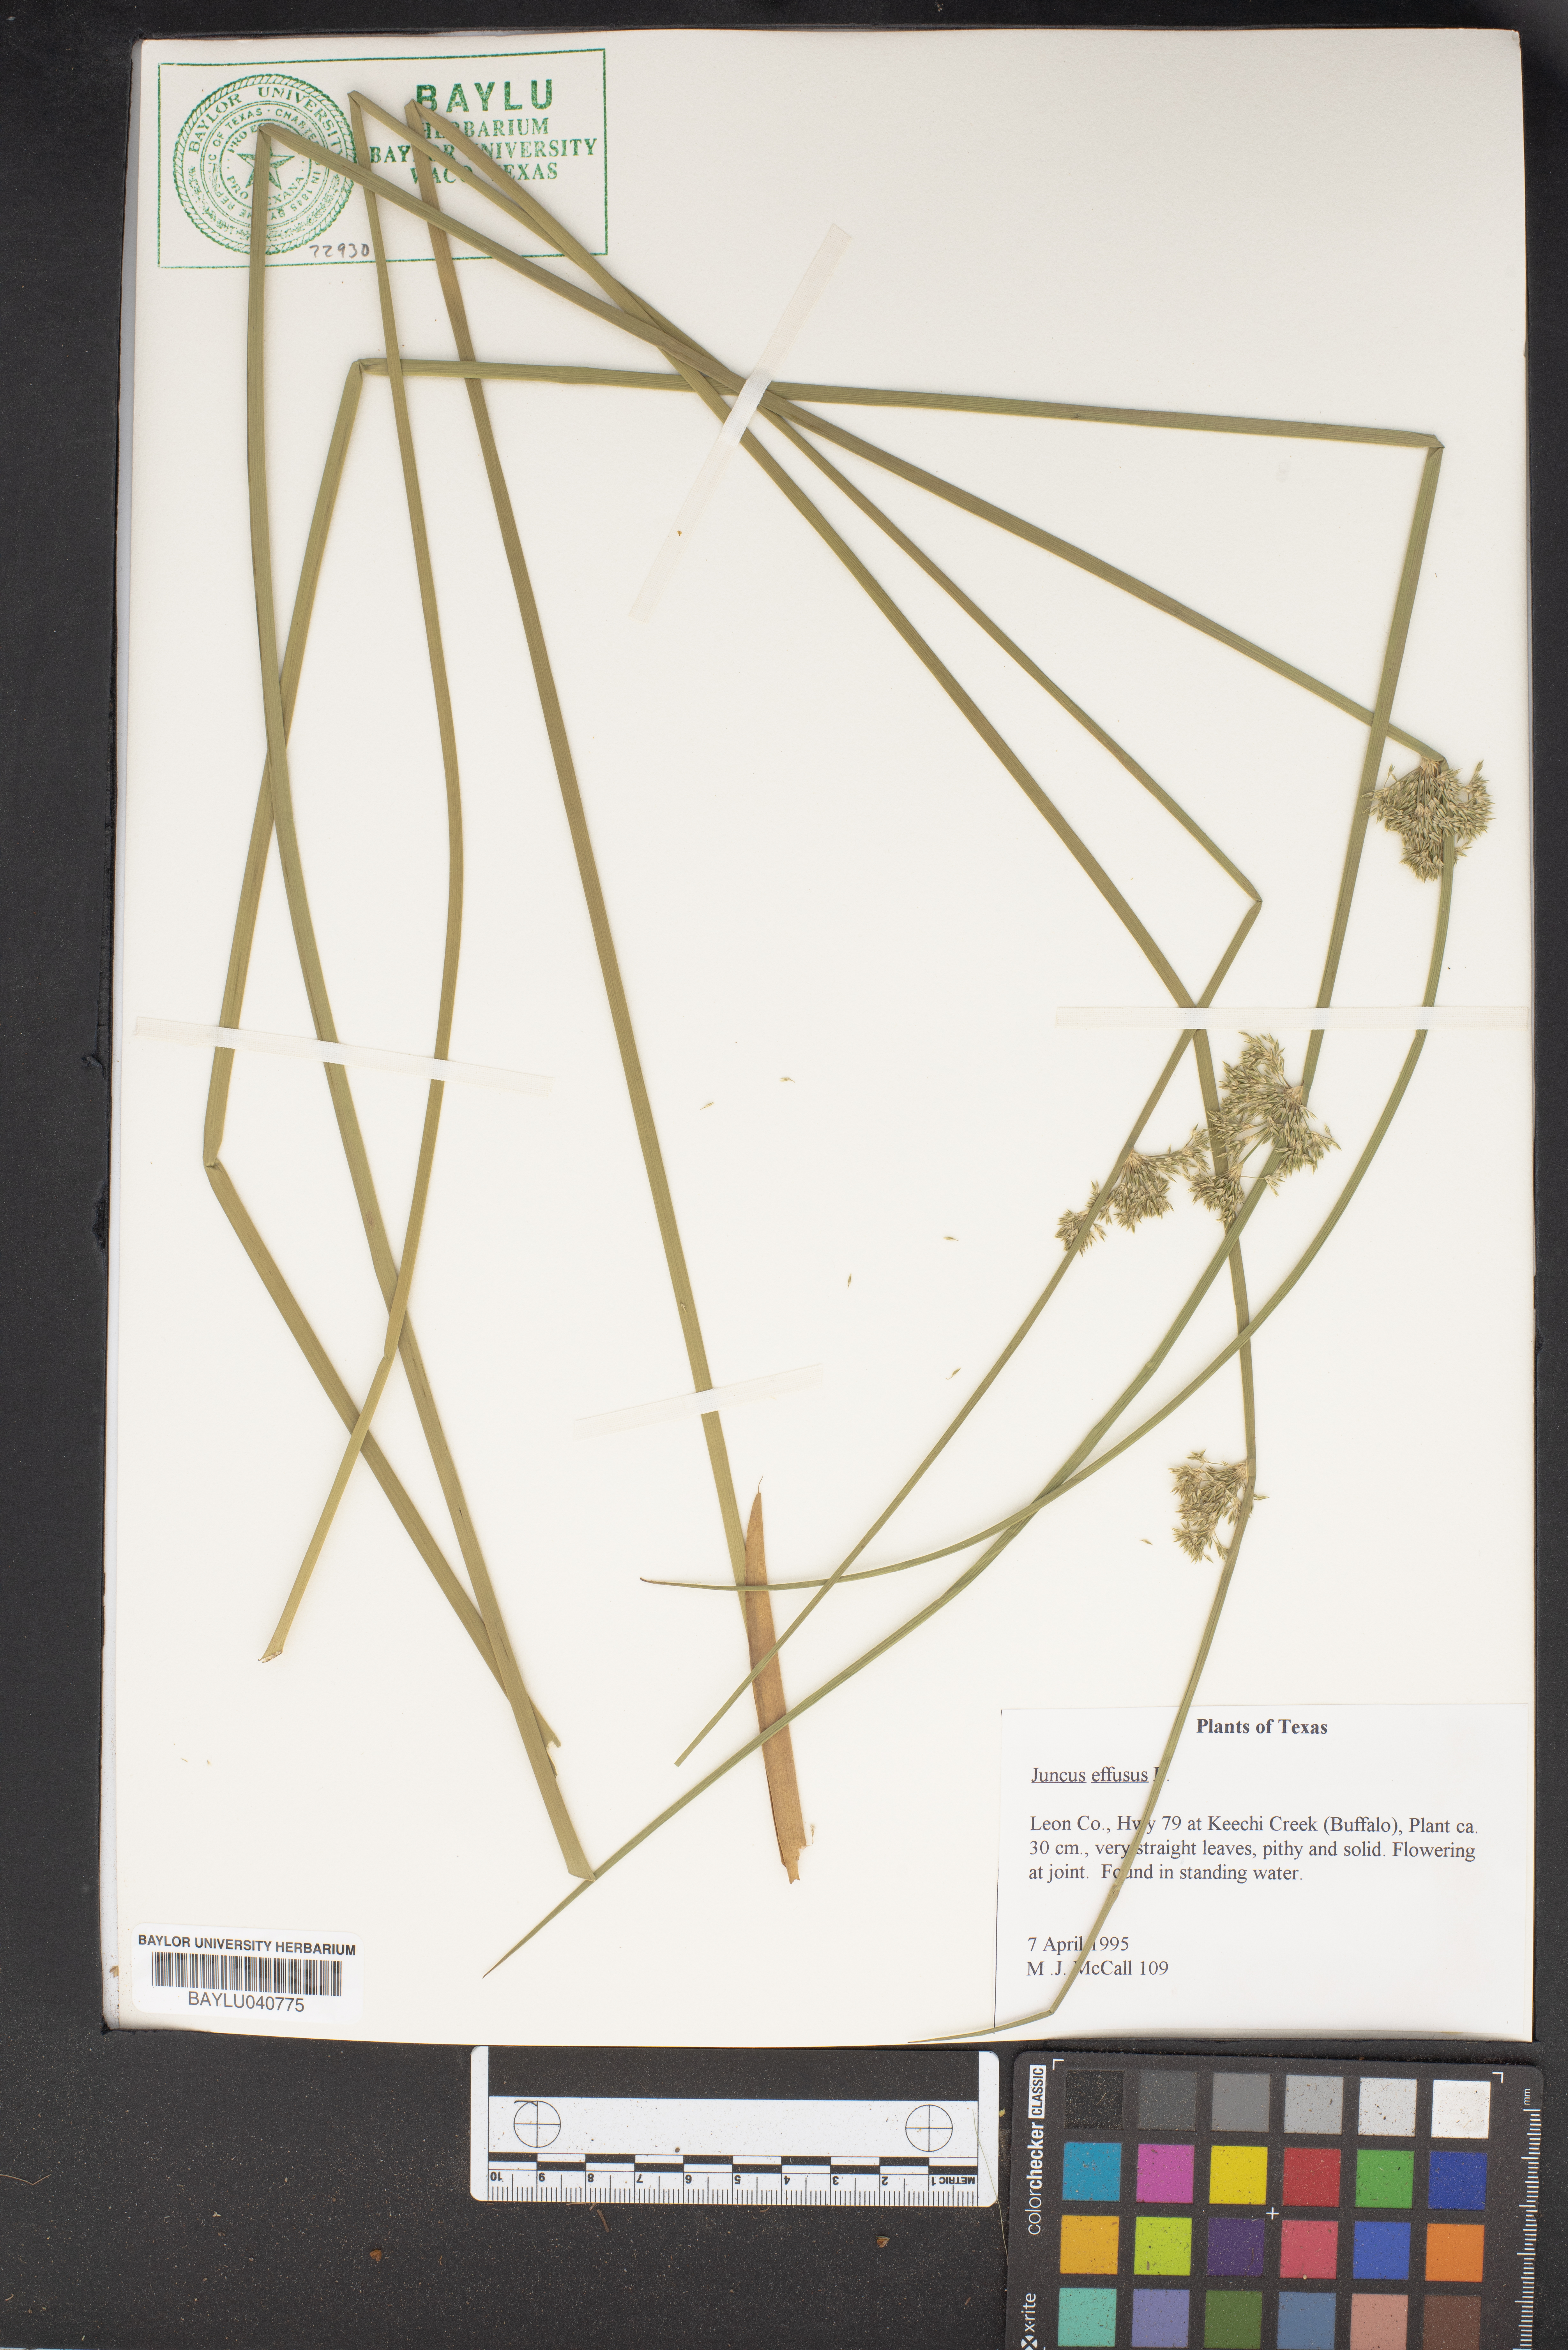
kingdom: Plantae
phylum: Tracheophyta
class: Liliopsida
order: Poales
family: Juncaceae
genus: Juncus
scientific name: Juncus effusus
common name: Soft rush
